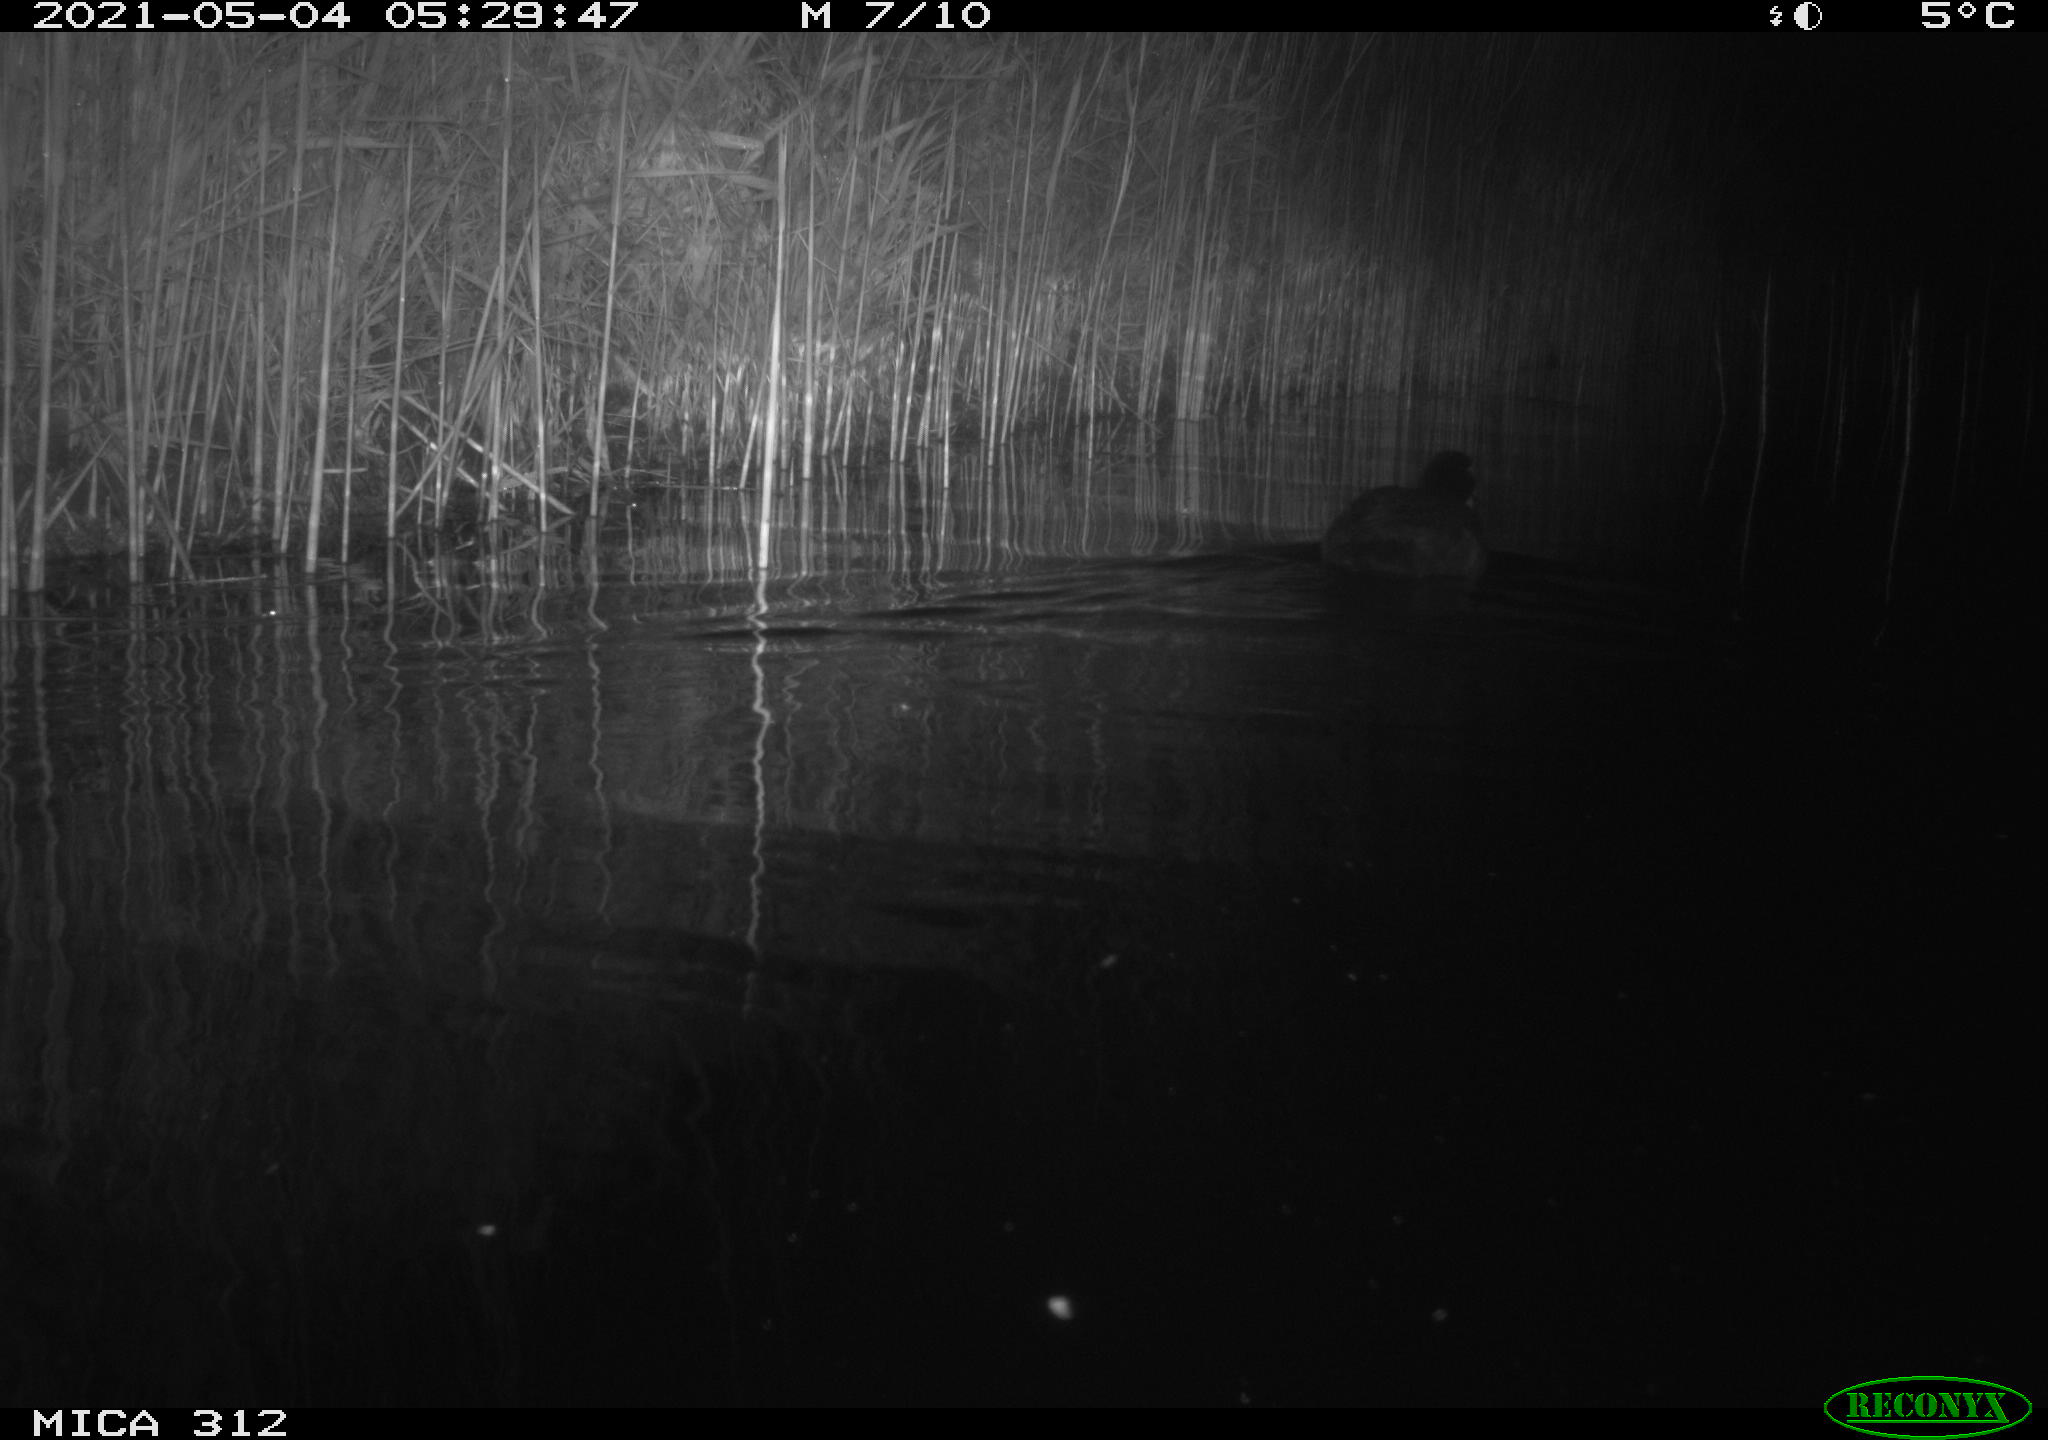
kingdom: Animalia
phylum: Chordata
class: Aves
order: Gruiformes
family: Rallidae
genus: Fulica
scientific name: Fulica atra
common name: Eurasian coot
